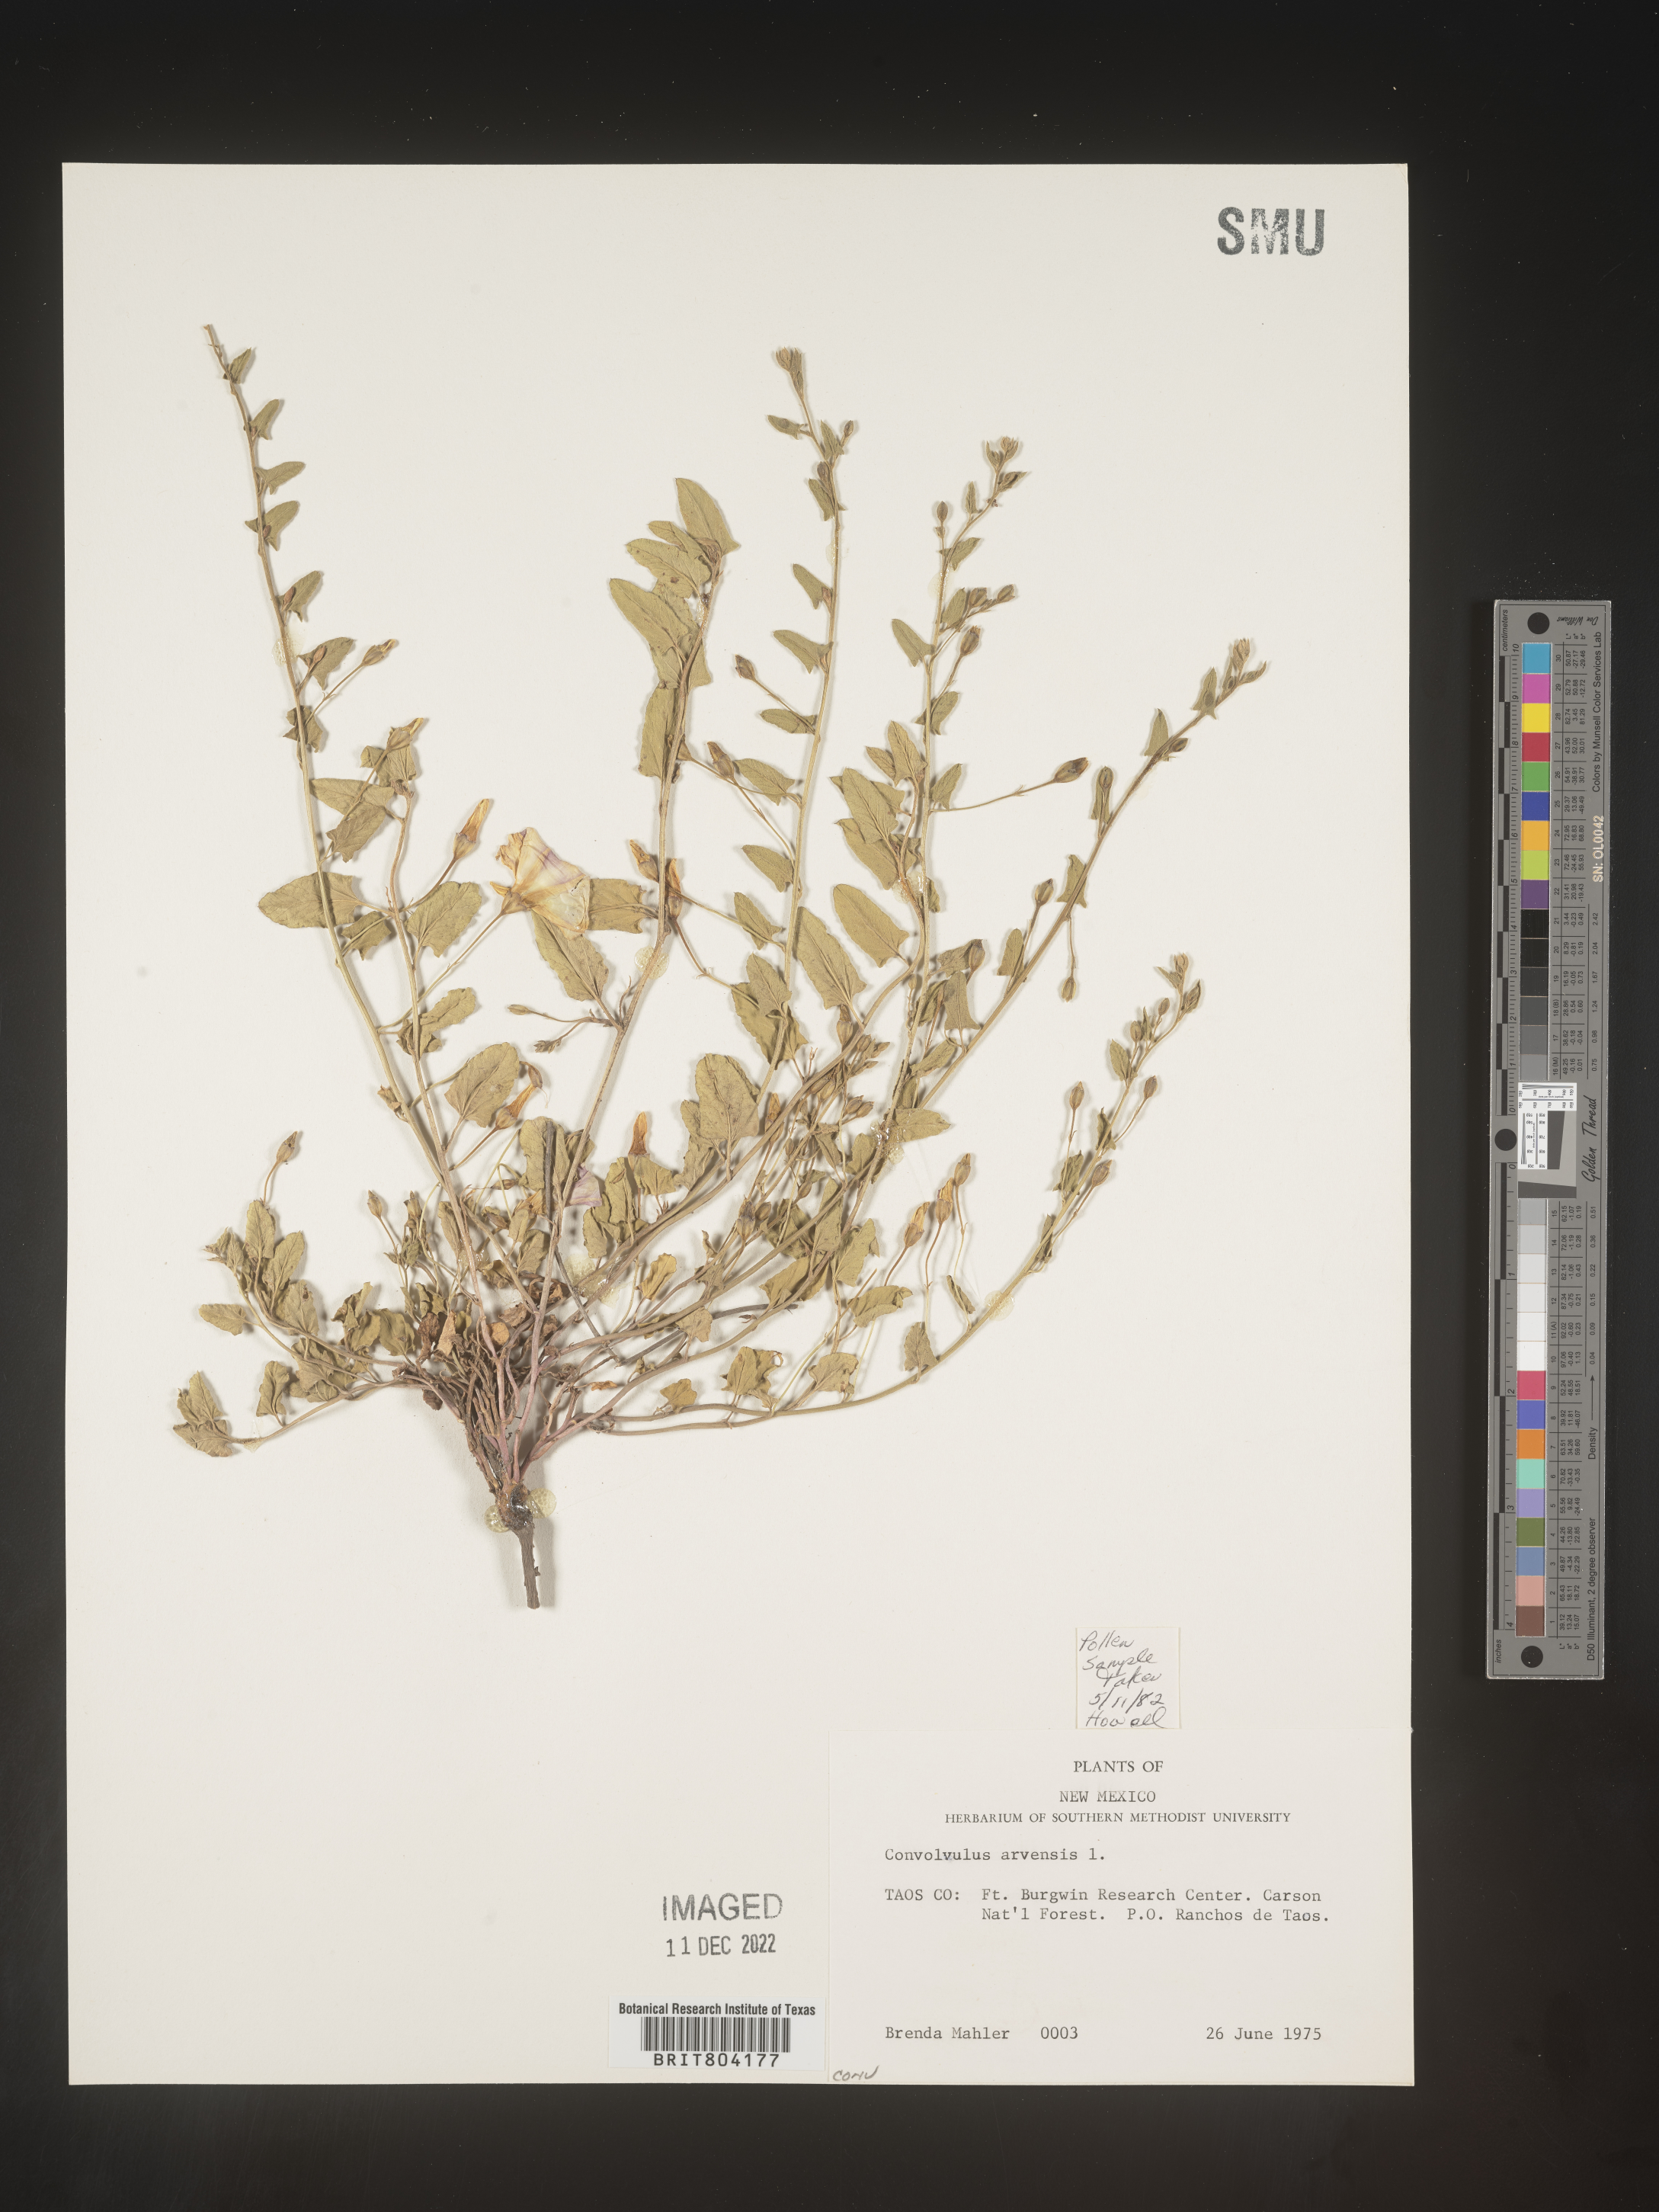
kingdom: Plantae
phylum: Tracheophyta
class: Magnoliopsida
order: Solanales
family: Convolvulaceae
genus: Convolvulus
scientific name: Convolvulus arvensis
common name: Field bindweed
